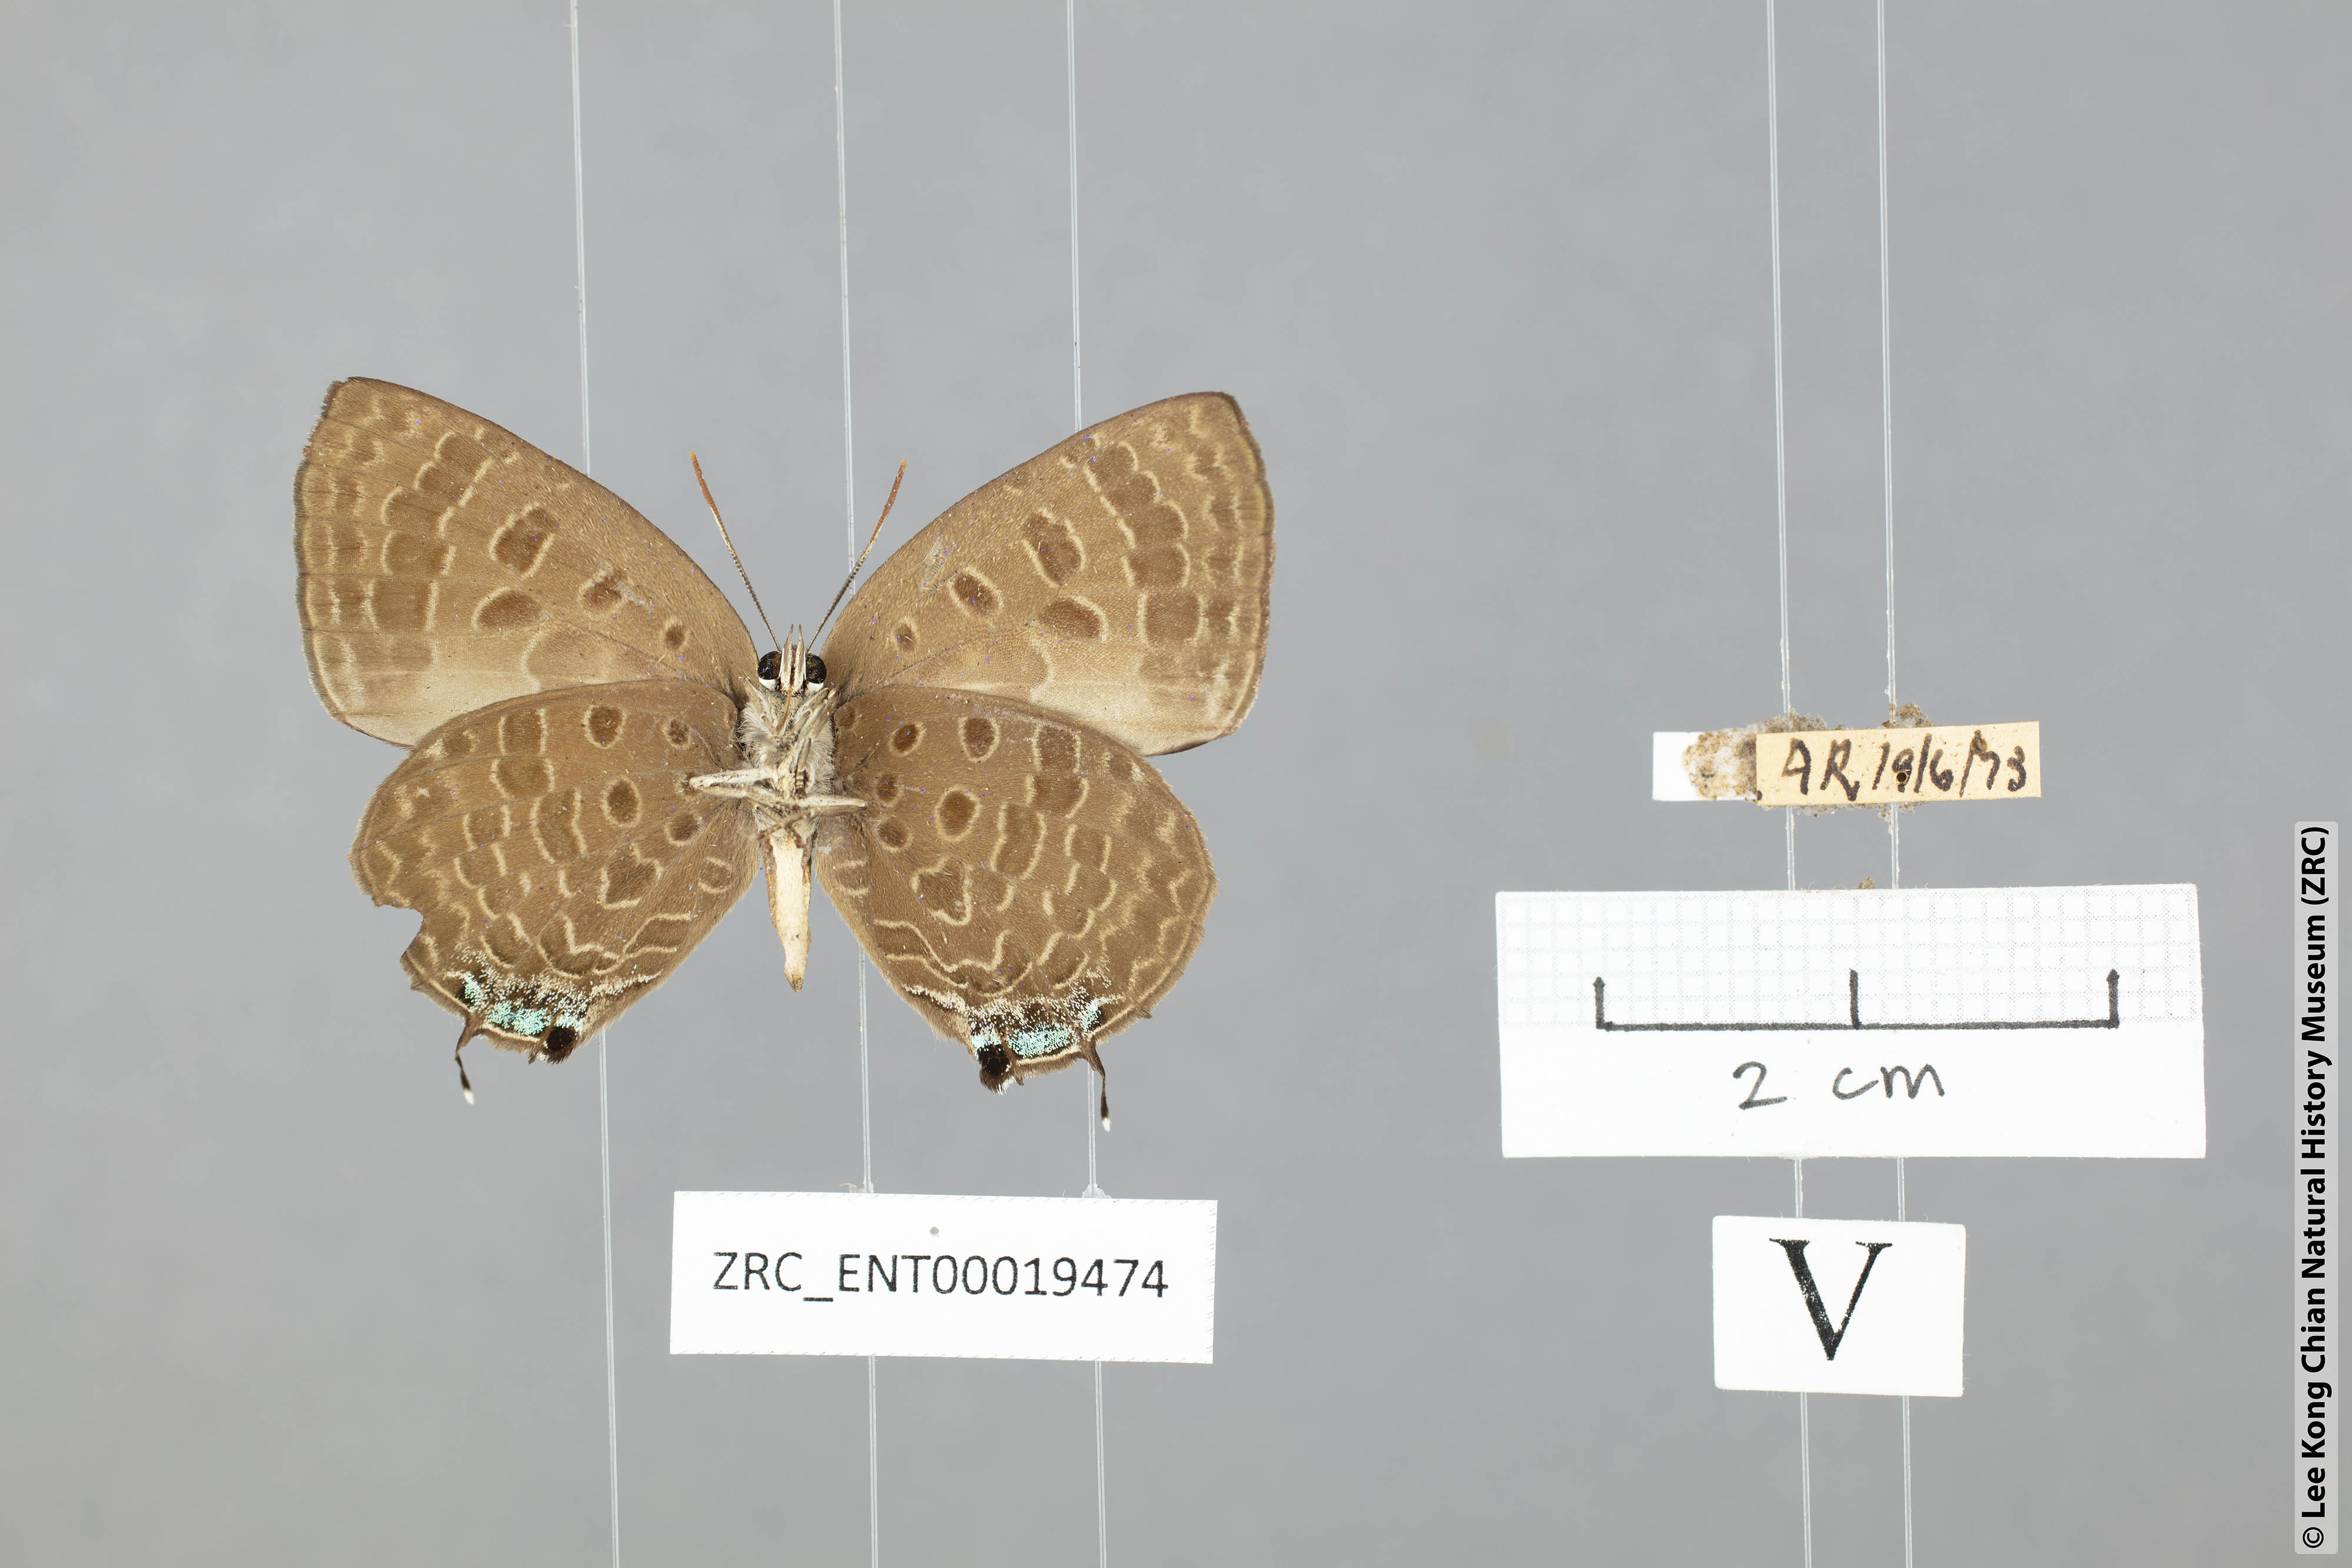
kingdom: Animalia
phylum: Arthropoda
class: Insecta
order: Lepidoptera
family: Lycaenidae
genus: Arhopala
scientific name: Arhopala azinis
